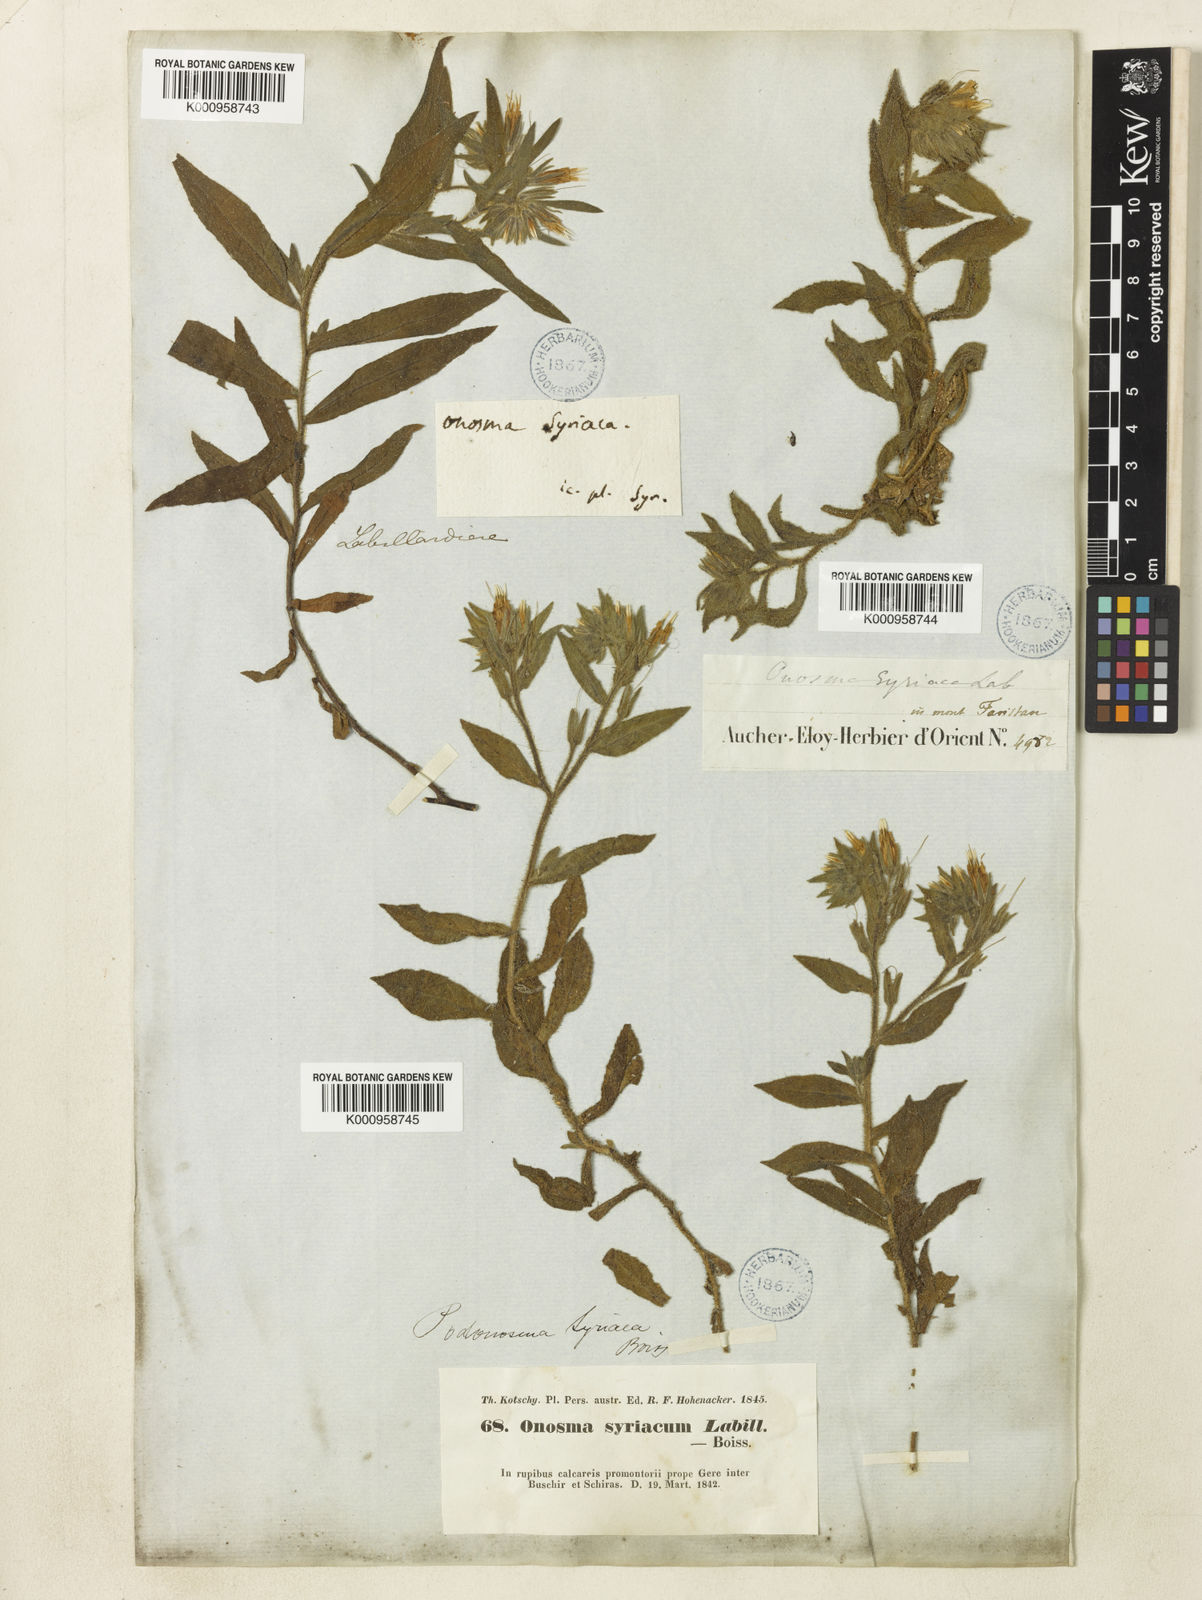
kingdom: Plantae
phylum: Tracheophyta
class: Magnoliopsida
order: Boraginales
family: Boraginaceae
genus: Podonosma
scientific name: Podonosma orientalis
